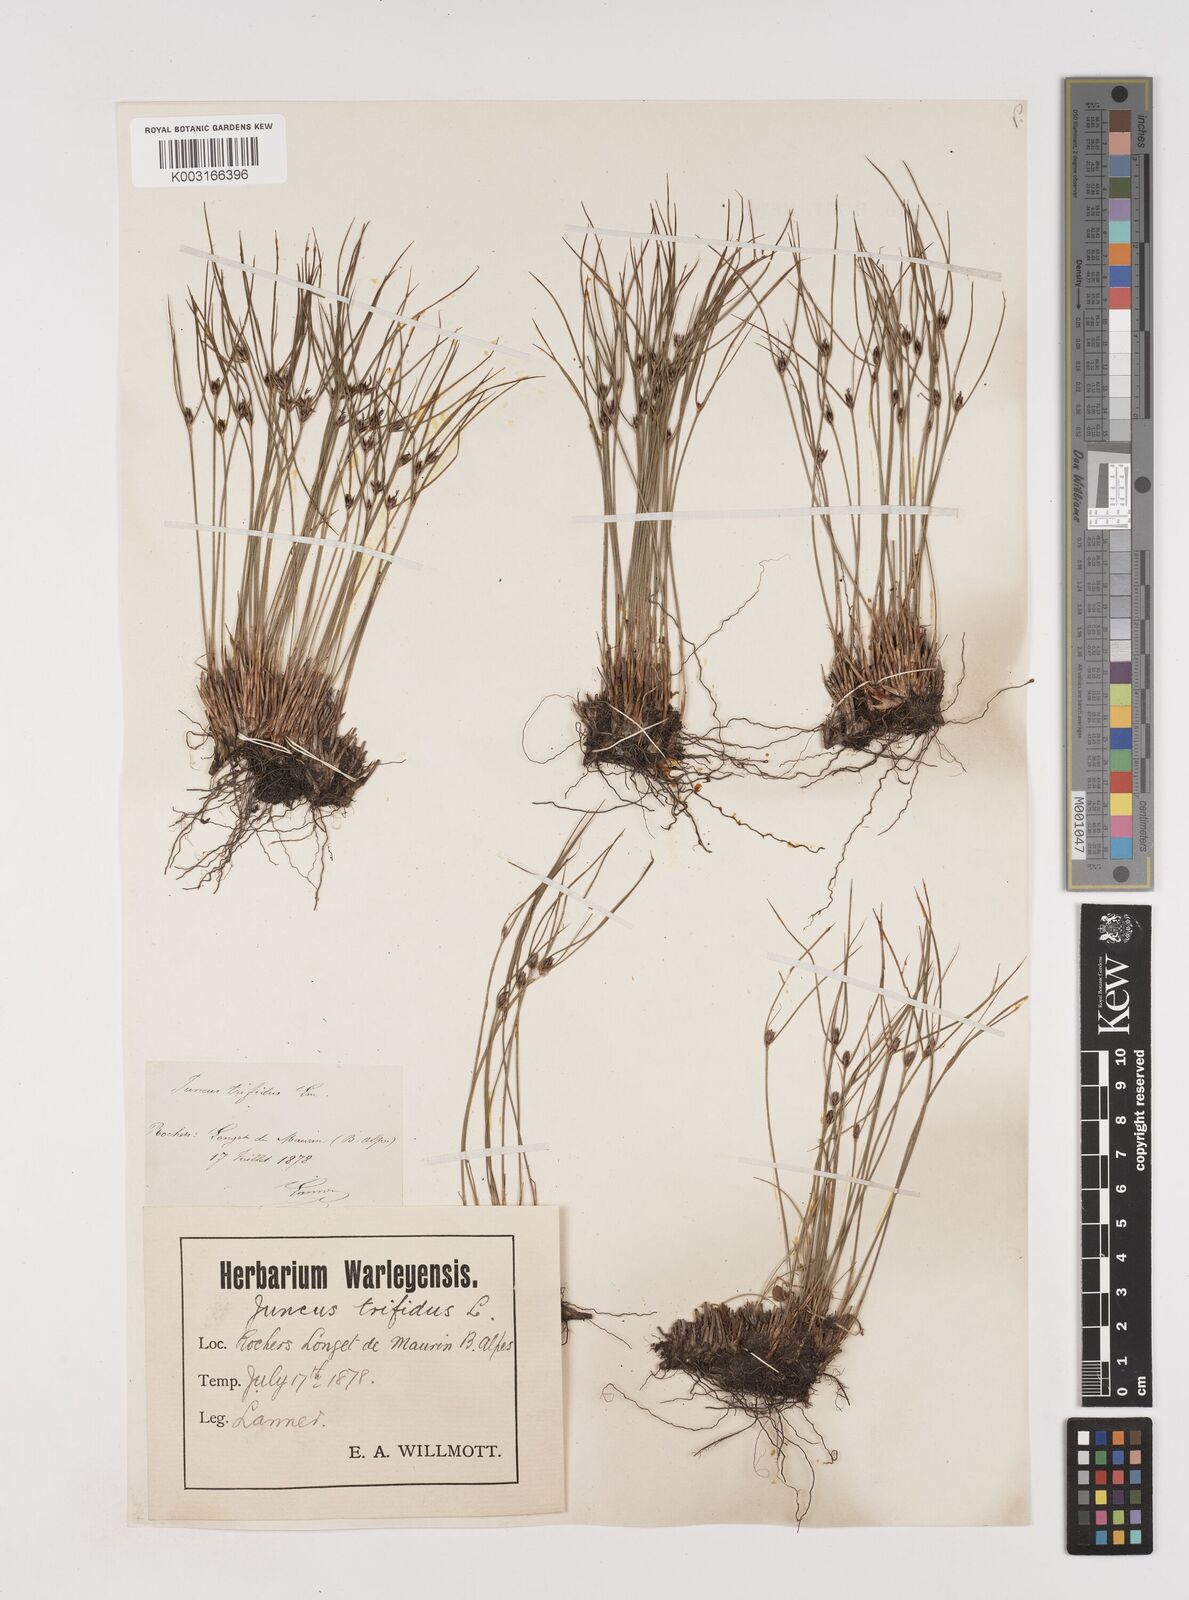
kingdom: Plantae
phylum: Tracheophyta
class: Liliopsida
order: Poales
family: Juncaceae
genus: Oreojuncus
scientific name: Oreojuncus trifidus
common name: Highland rush
